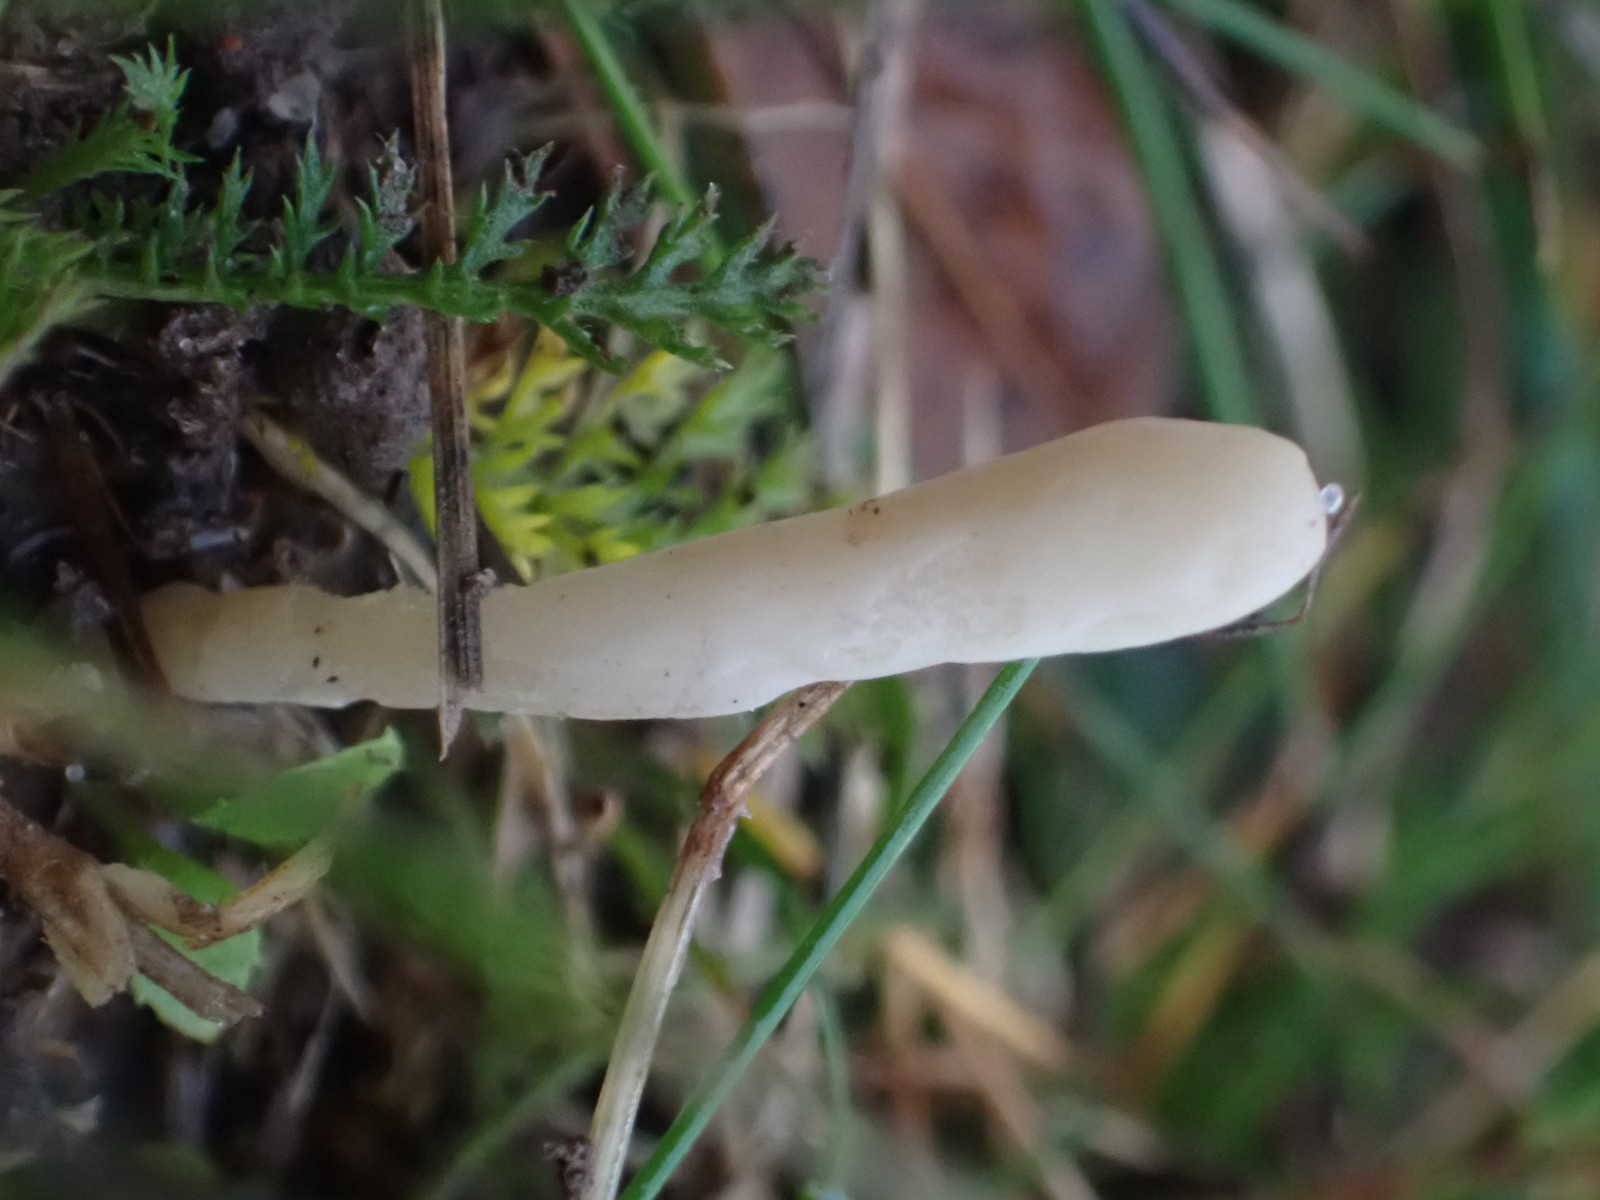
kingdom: Fungi
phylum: Basidiomycota
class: Agaricomycetes
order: Agaricales
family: Clavariaceae
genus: Clavaria
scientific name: Clavaria
